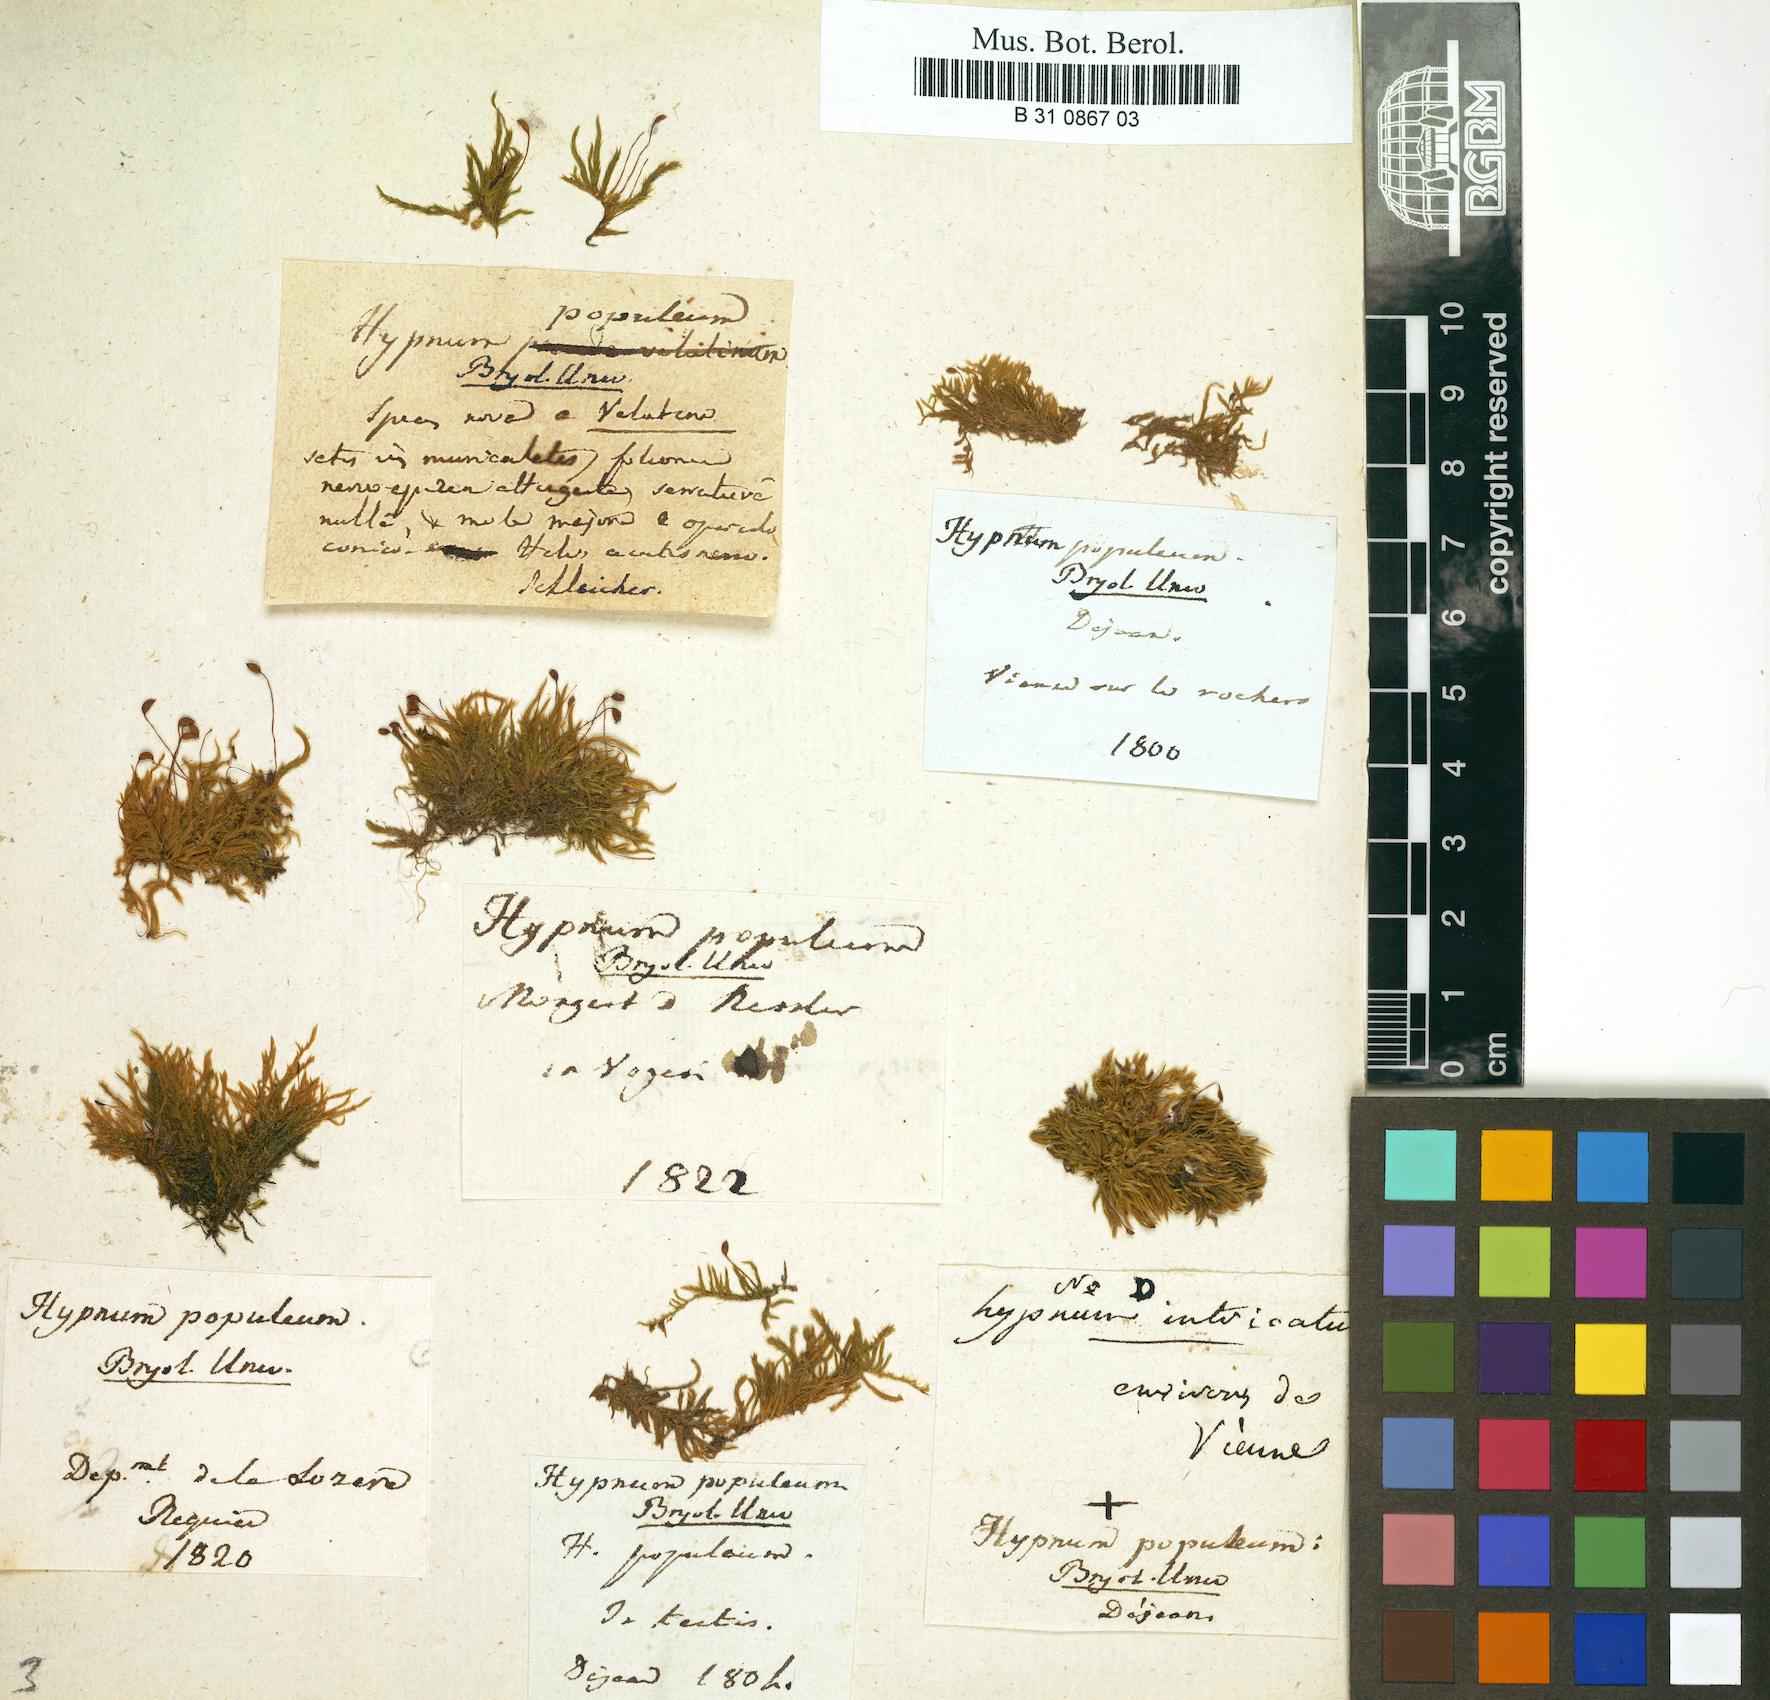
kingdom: Plantae
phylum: Bryophyta
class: Bryopsida
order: Hypnales
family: Brachytheciaceae
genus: Sciuro-hypnum
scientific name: Sciuro-hypnum populeum
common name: Matted feather-moss
